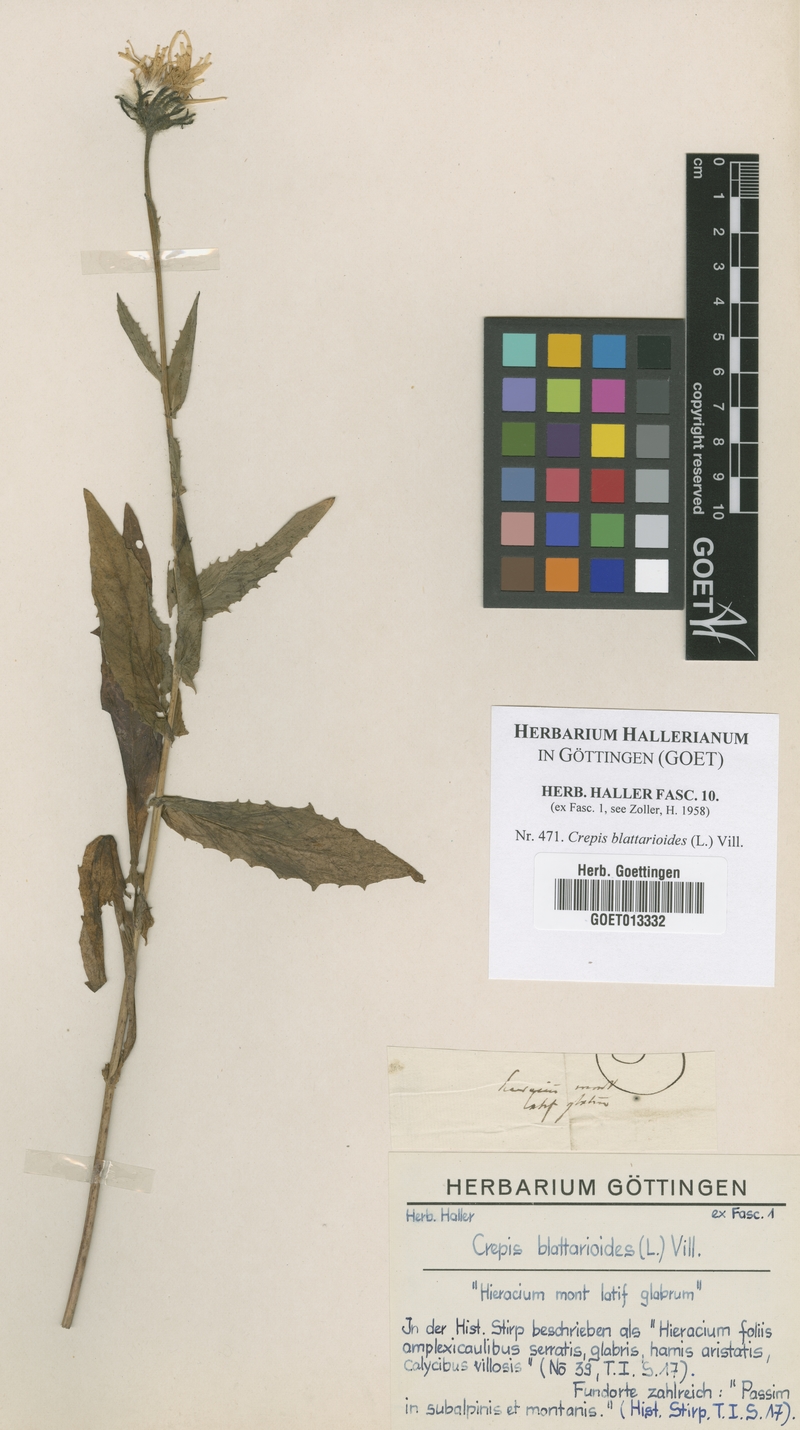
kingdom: Plantae
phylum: Tracheophyta
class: Magnoliopsida
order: Asterales
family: Asteraceae
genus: Crepis
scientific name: Crepis blattarioides
